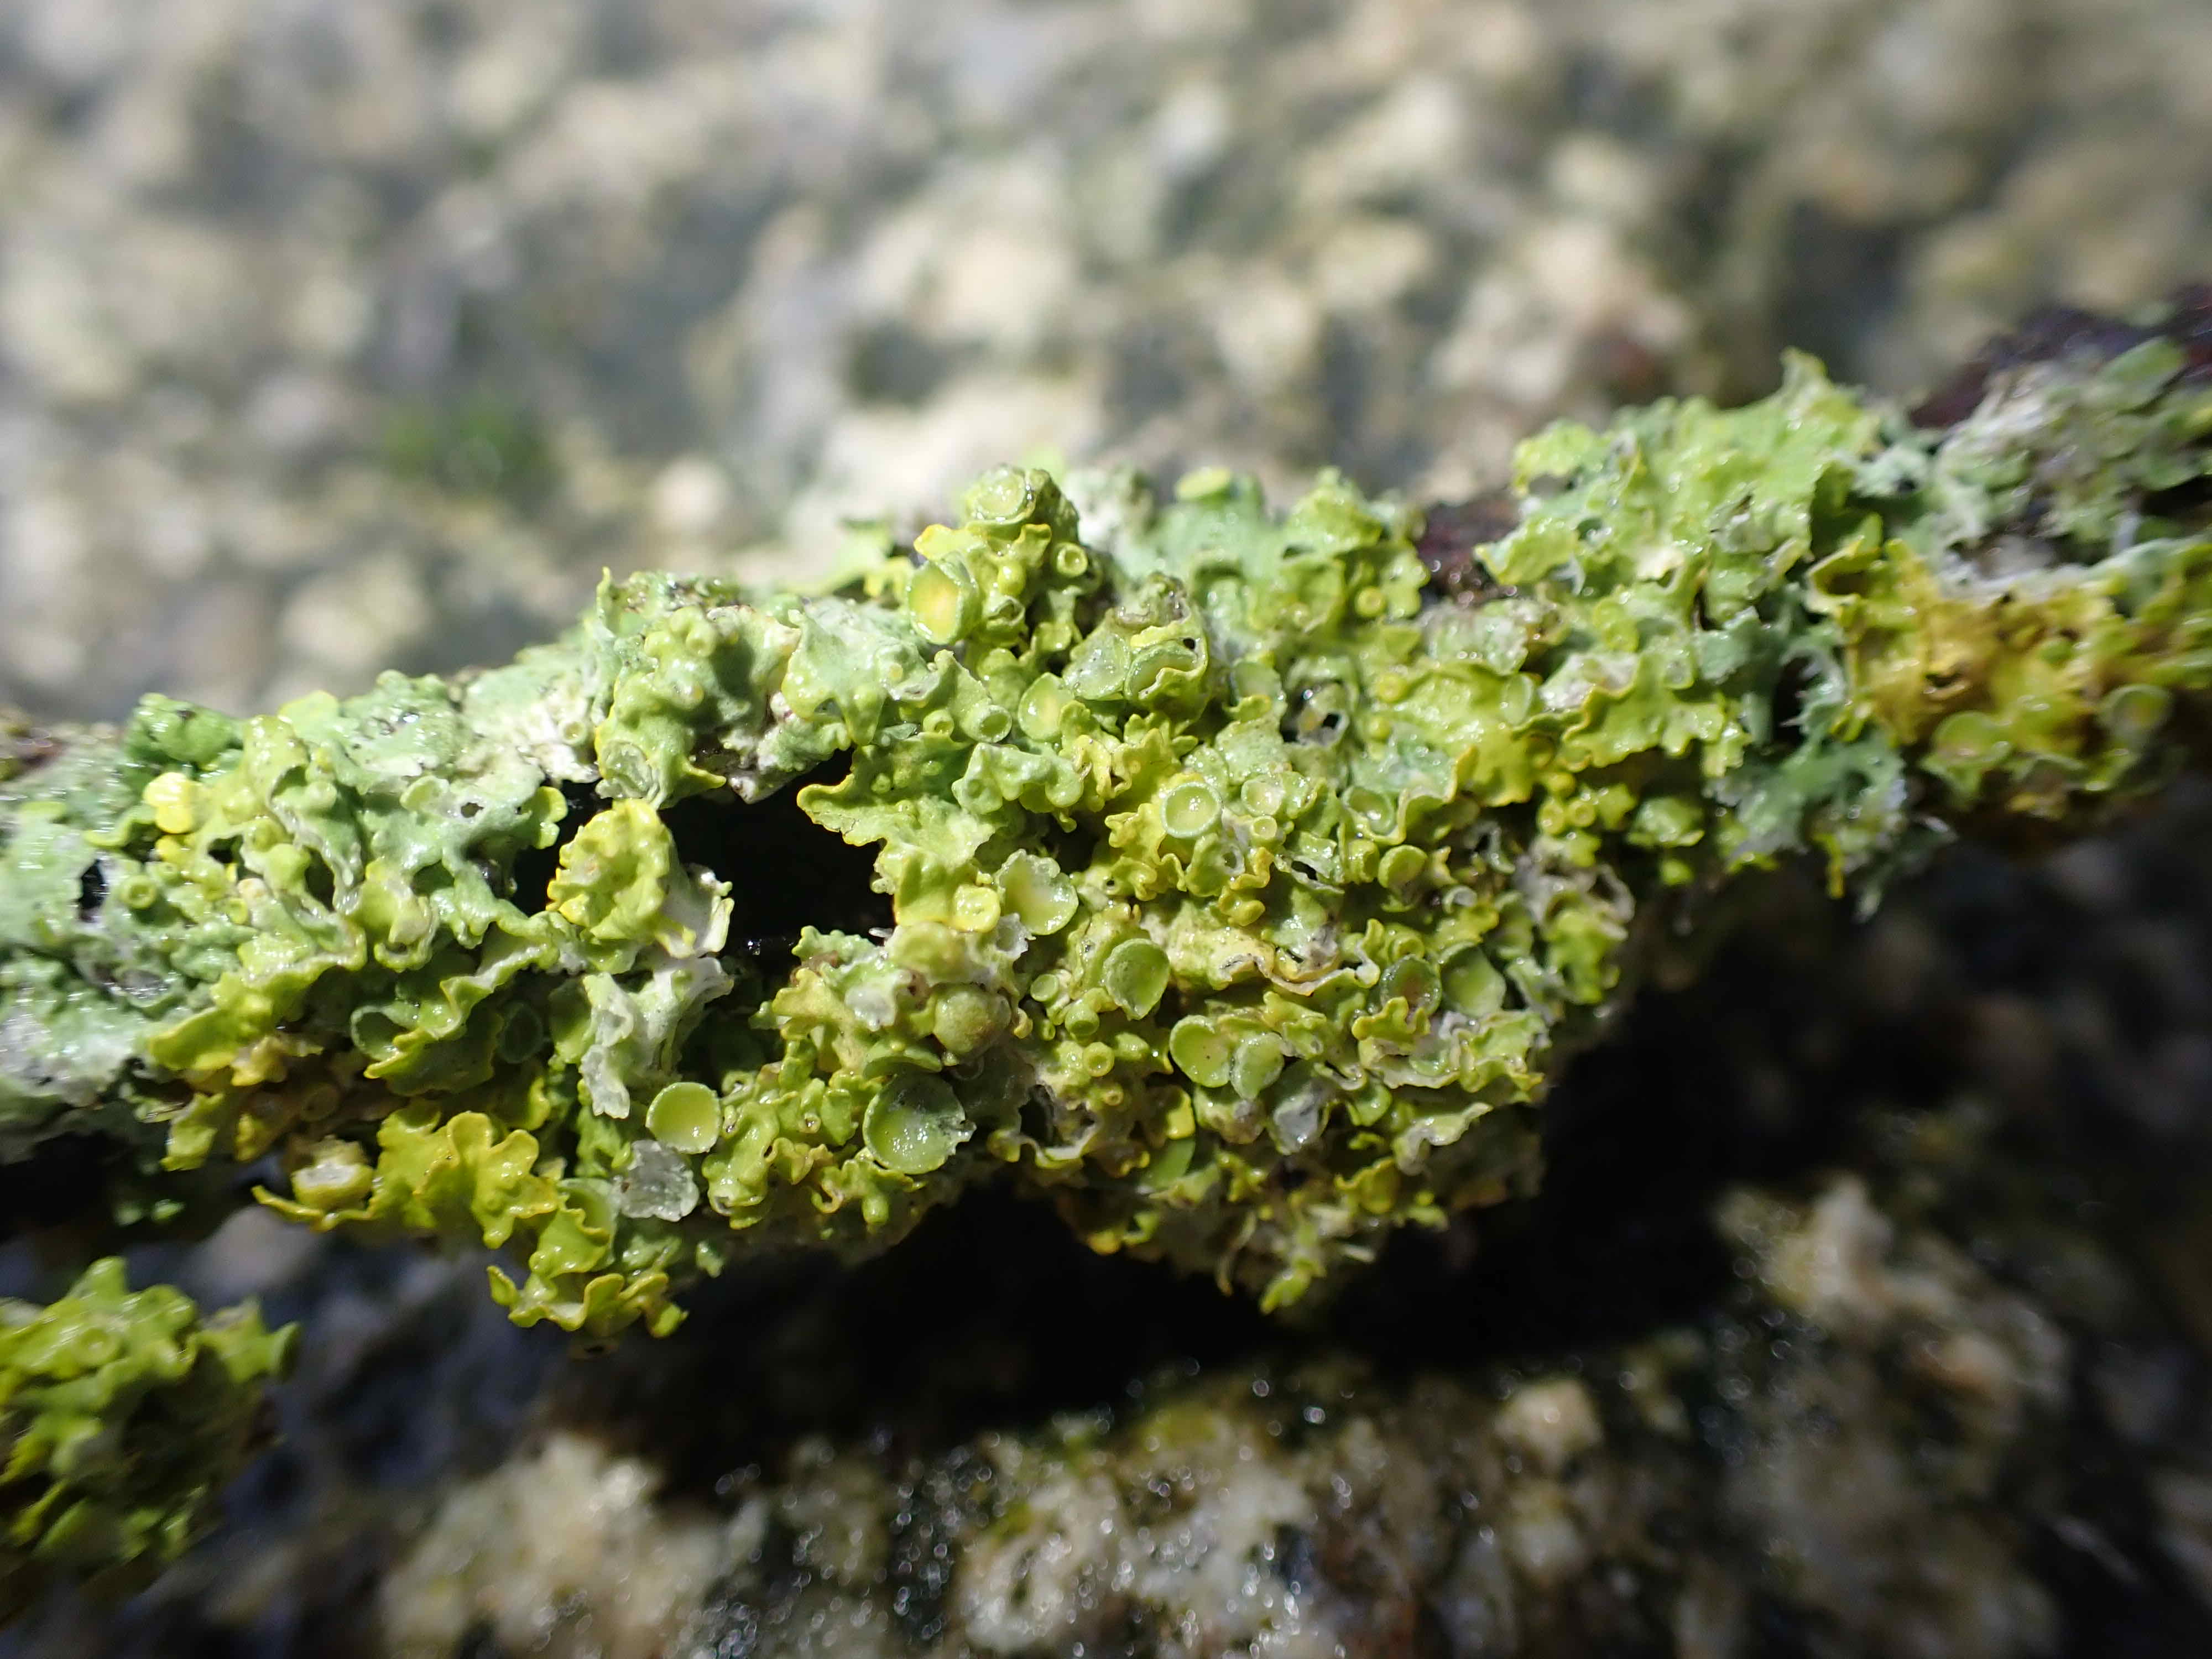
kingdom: Fungi
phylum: Ascomycota
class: Lecanoromycetes
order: Teloschistales
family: Teloschistaceae
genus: Xanthoria
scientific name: Xanthoria parietina
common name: almindelig væggelav
